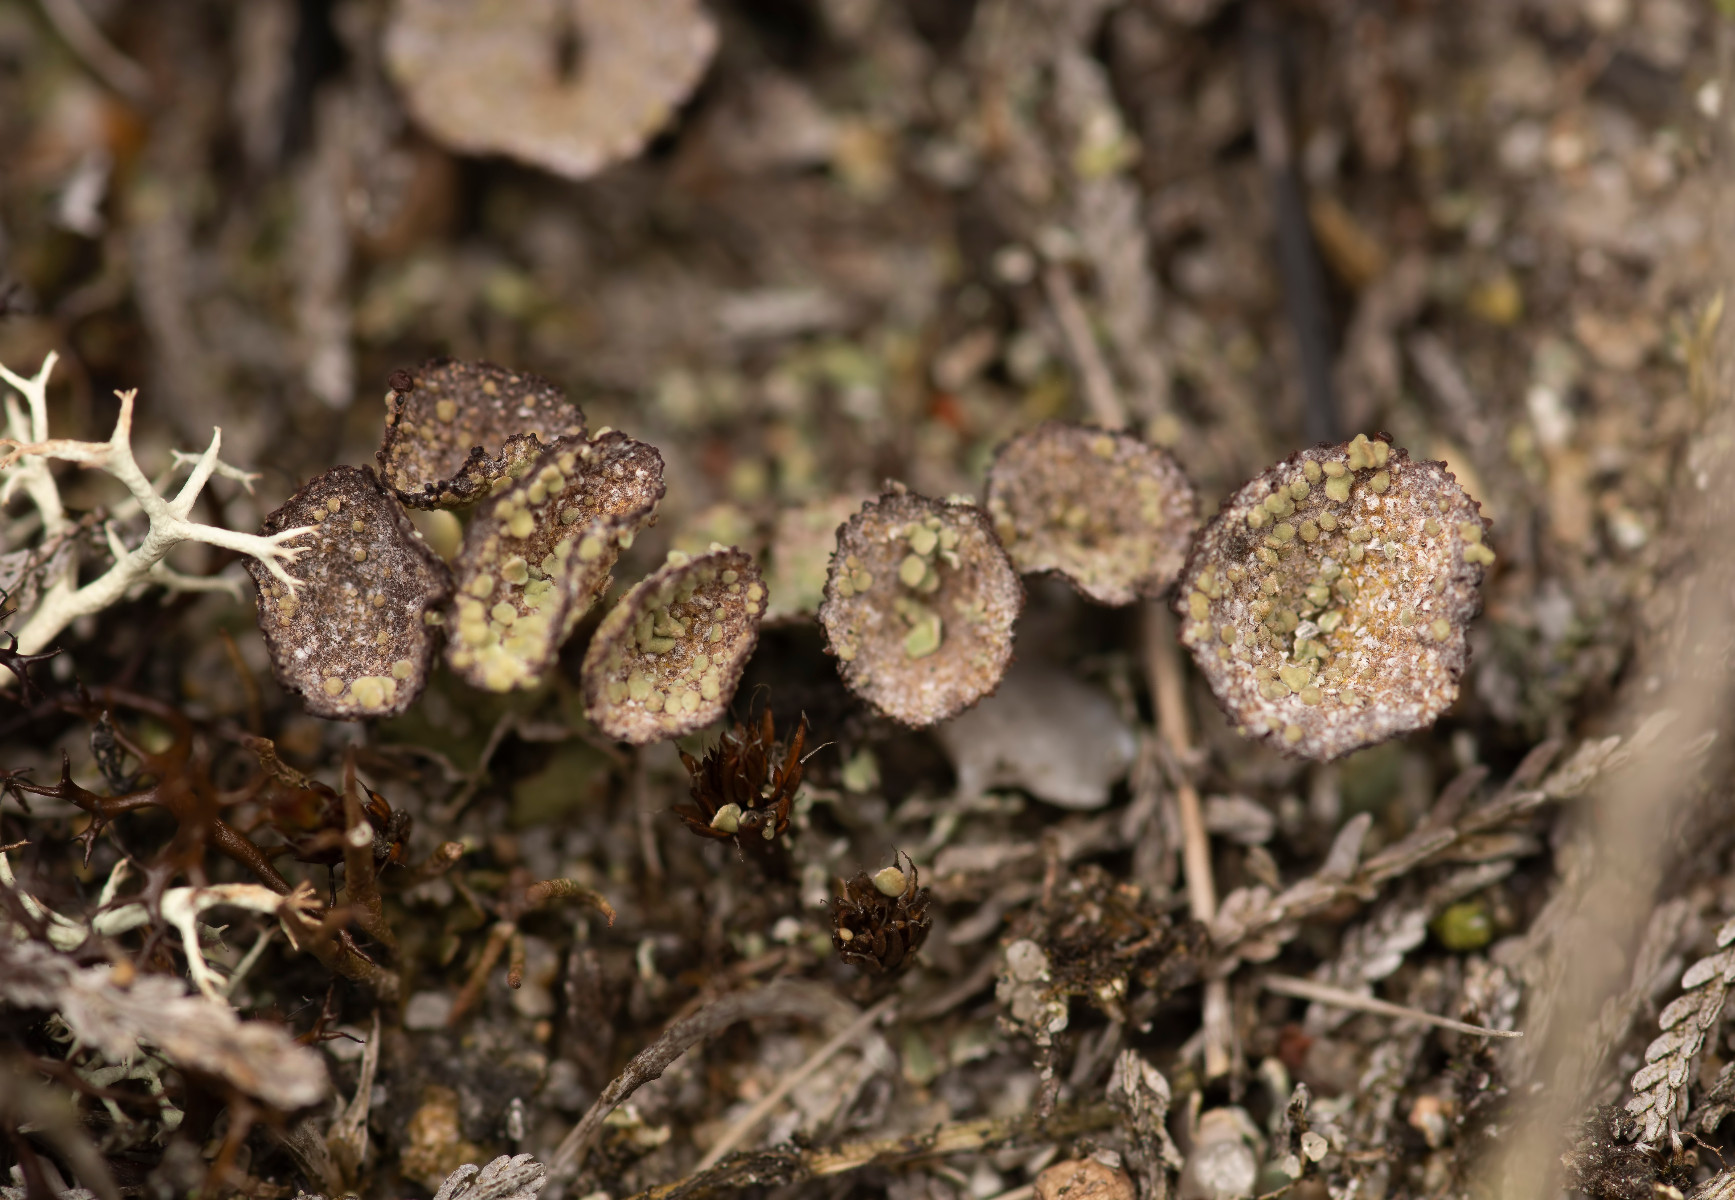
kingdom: Fungi
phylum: Ascomycota
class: Lecanoromycetes
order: Lecanorales
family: Cladoniaceae
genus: Cladonia
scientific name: Cladonia pyxidata
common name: tragt-bægerlav
